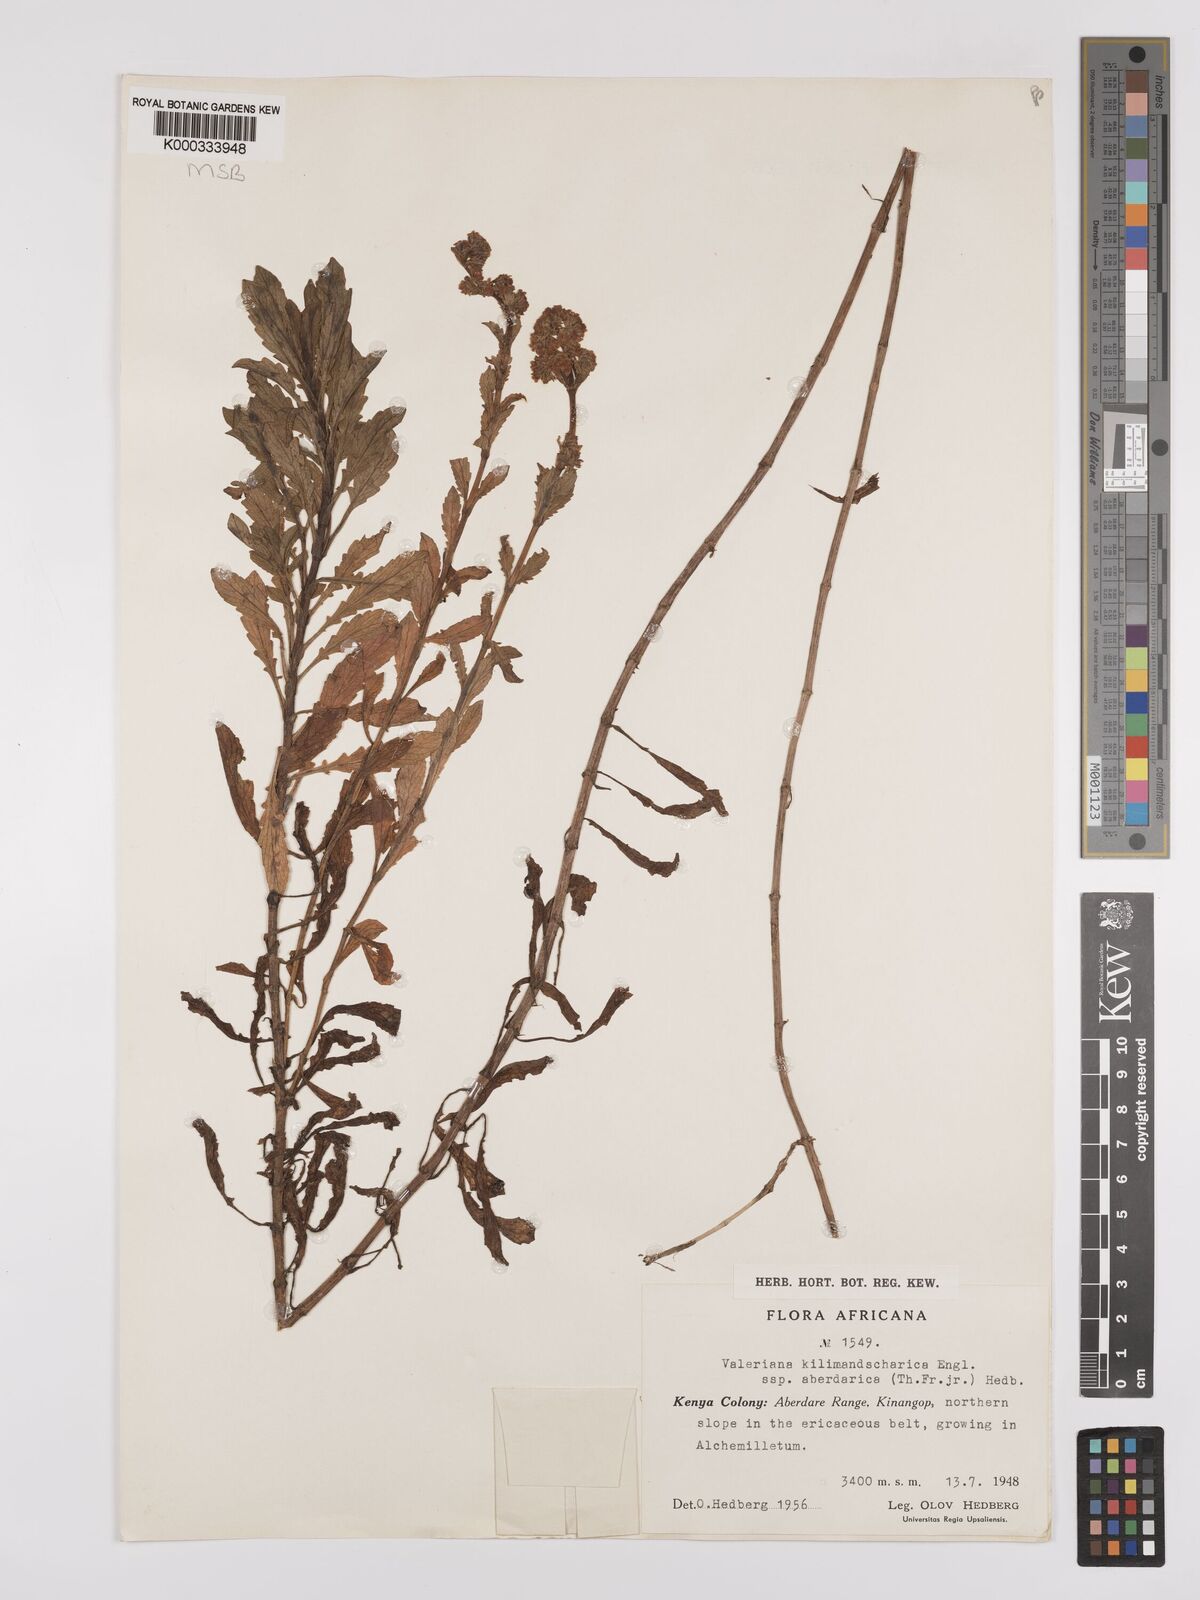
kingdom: Plantae
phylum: Tracheophyta
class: Magnoliopsida
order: Dipsacales
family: Caprifoliaceae
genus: Valeriana
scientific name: Valeriana kilimandscharica
